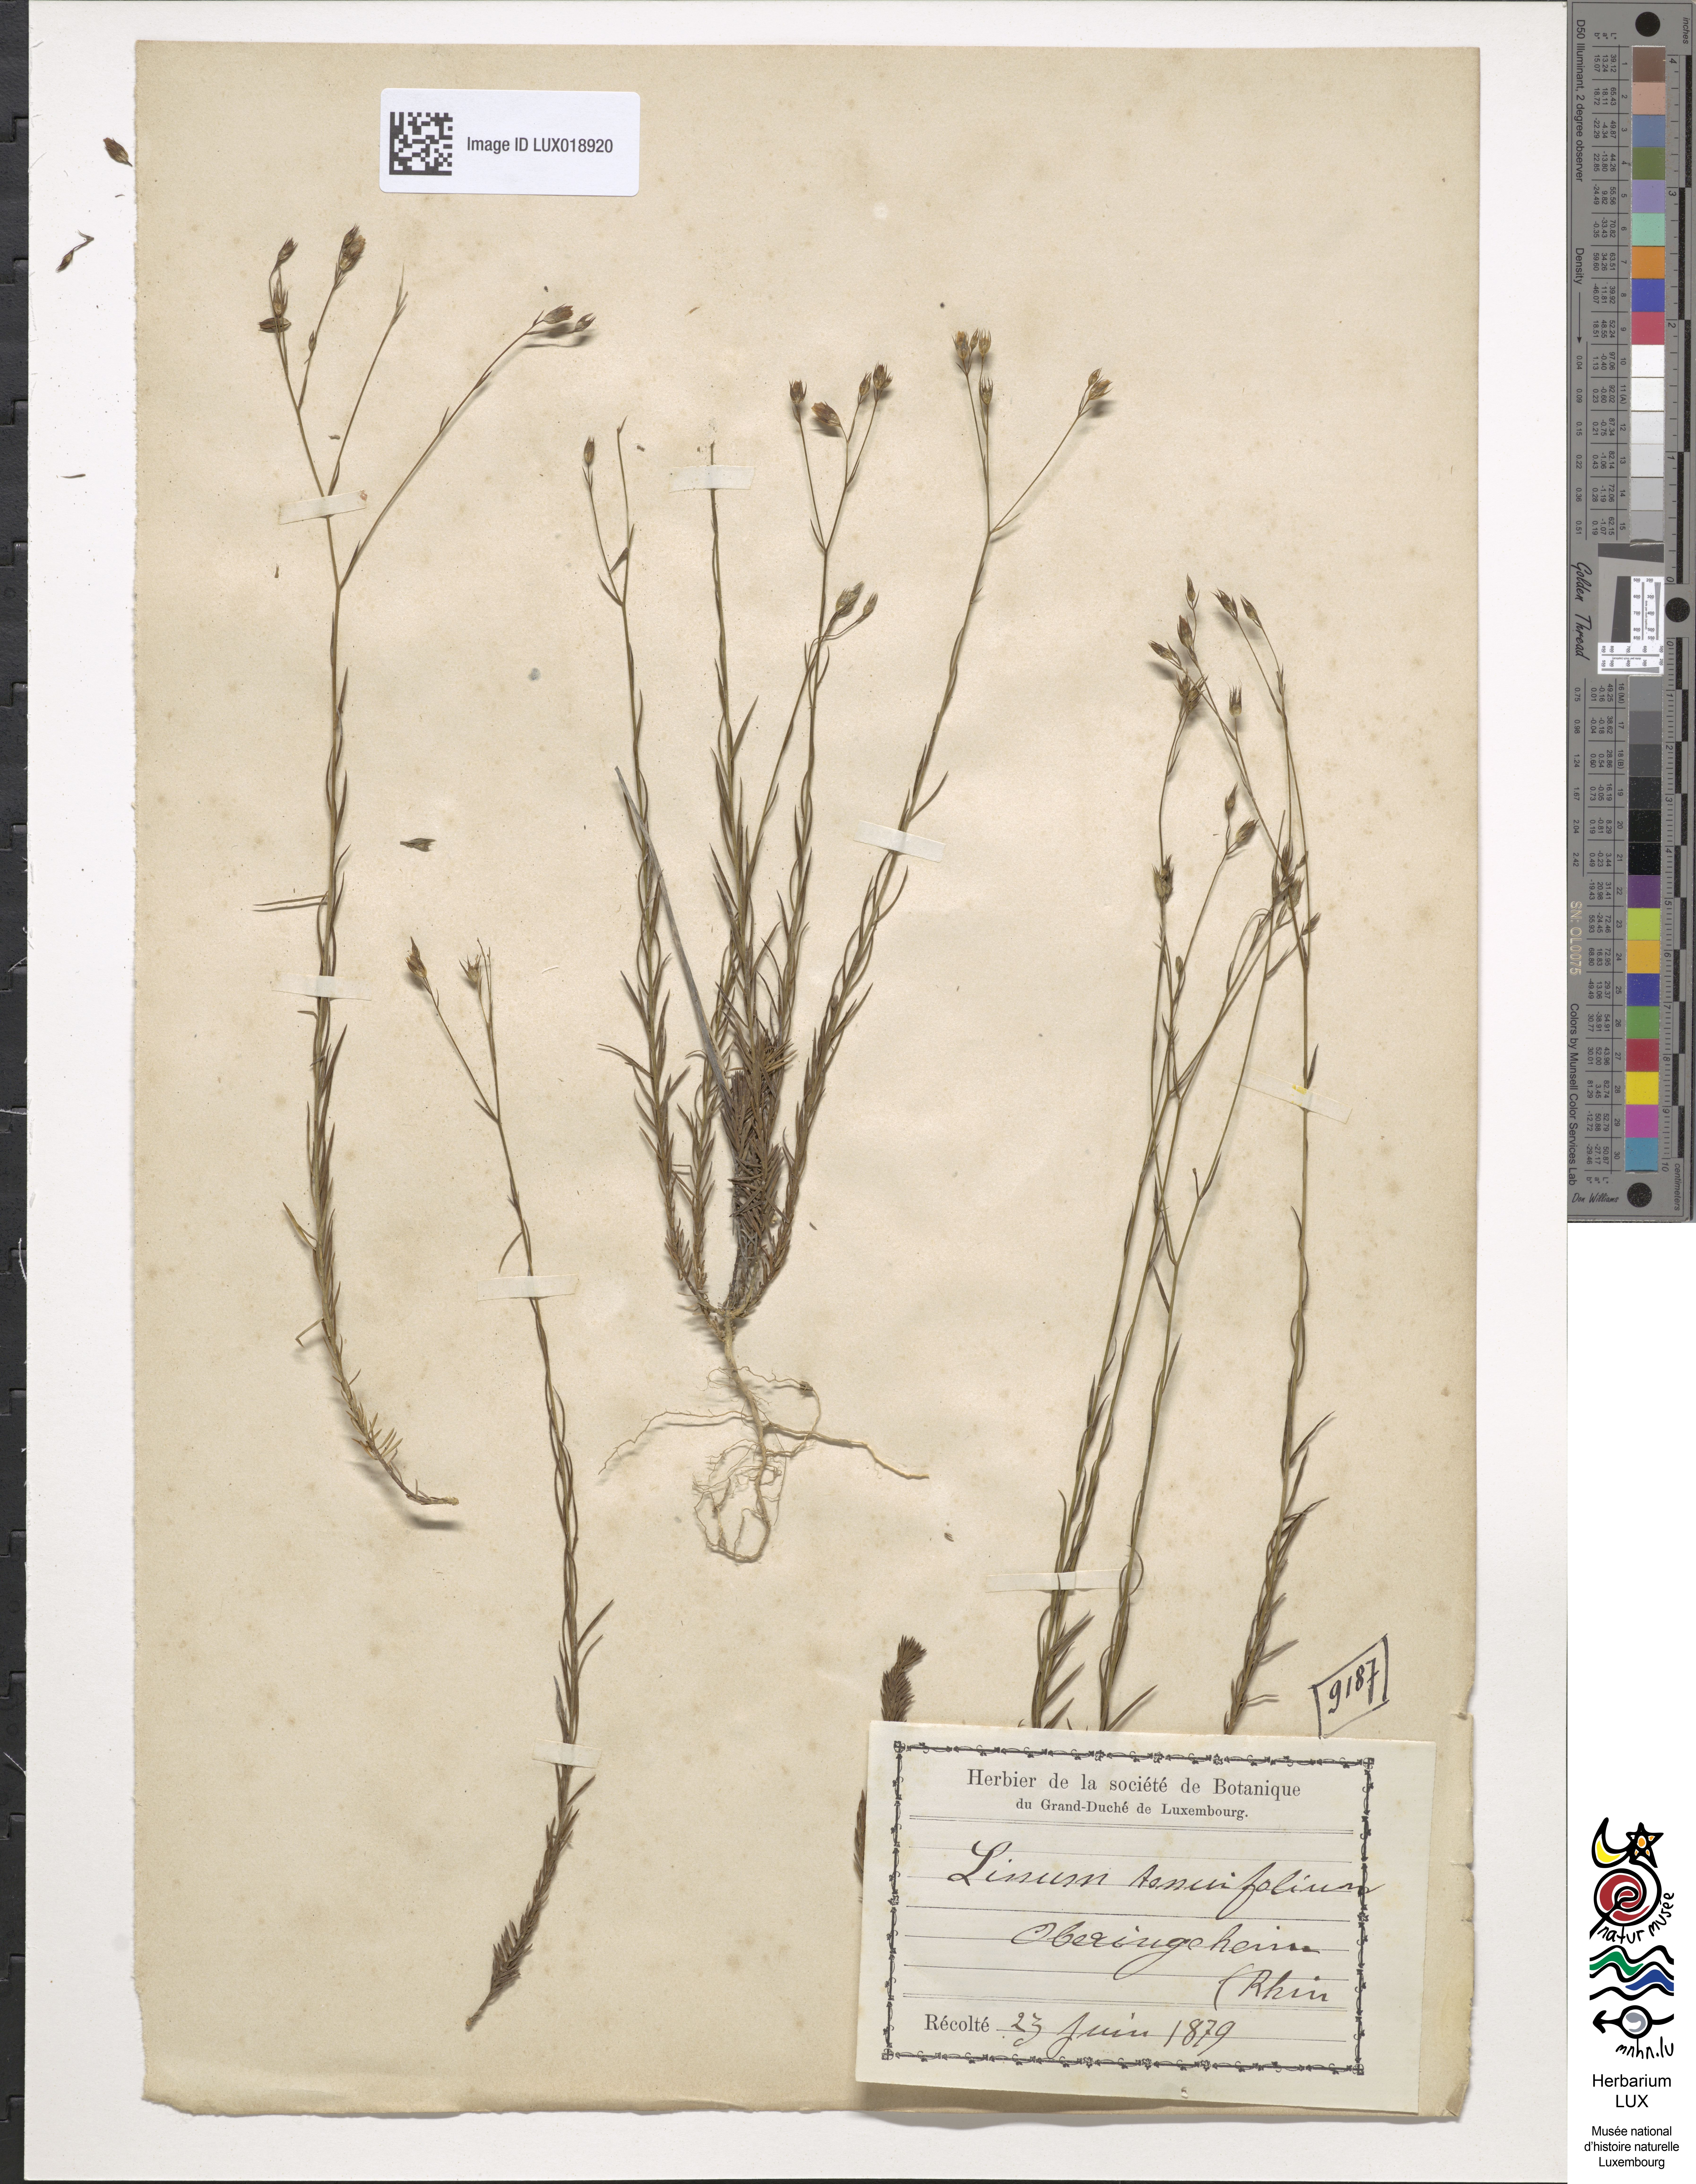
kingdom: Plantae
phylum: Tracheophyta
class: Magnoliopsida
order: Malpighiales
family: Linaceae
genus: Linum
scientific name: Linum tenuifolium
